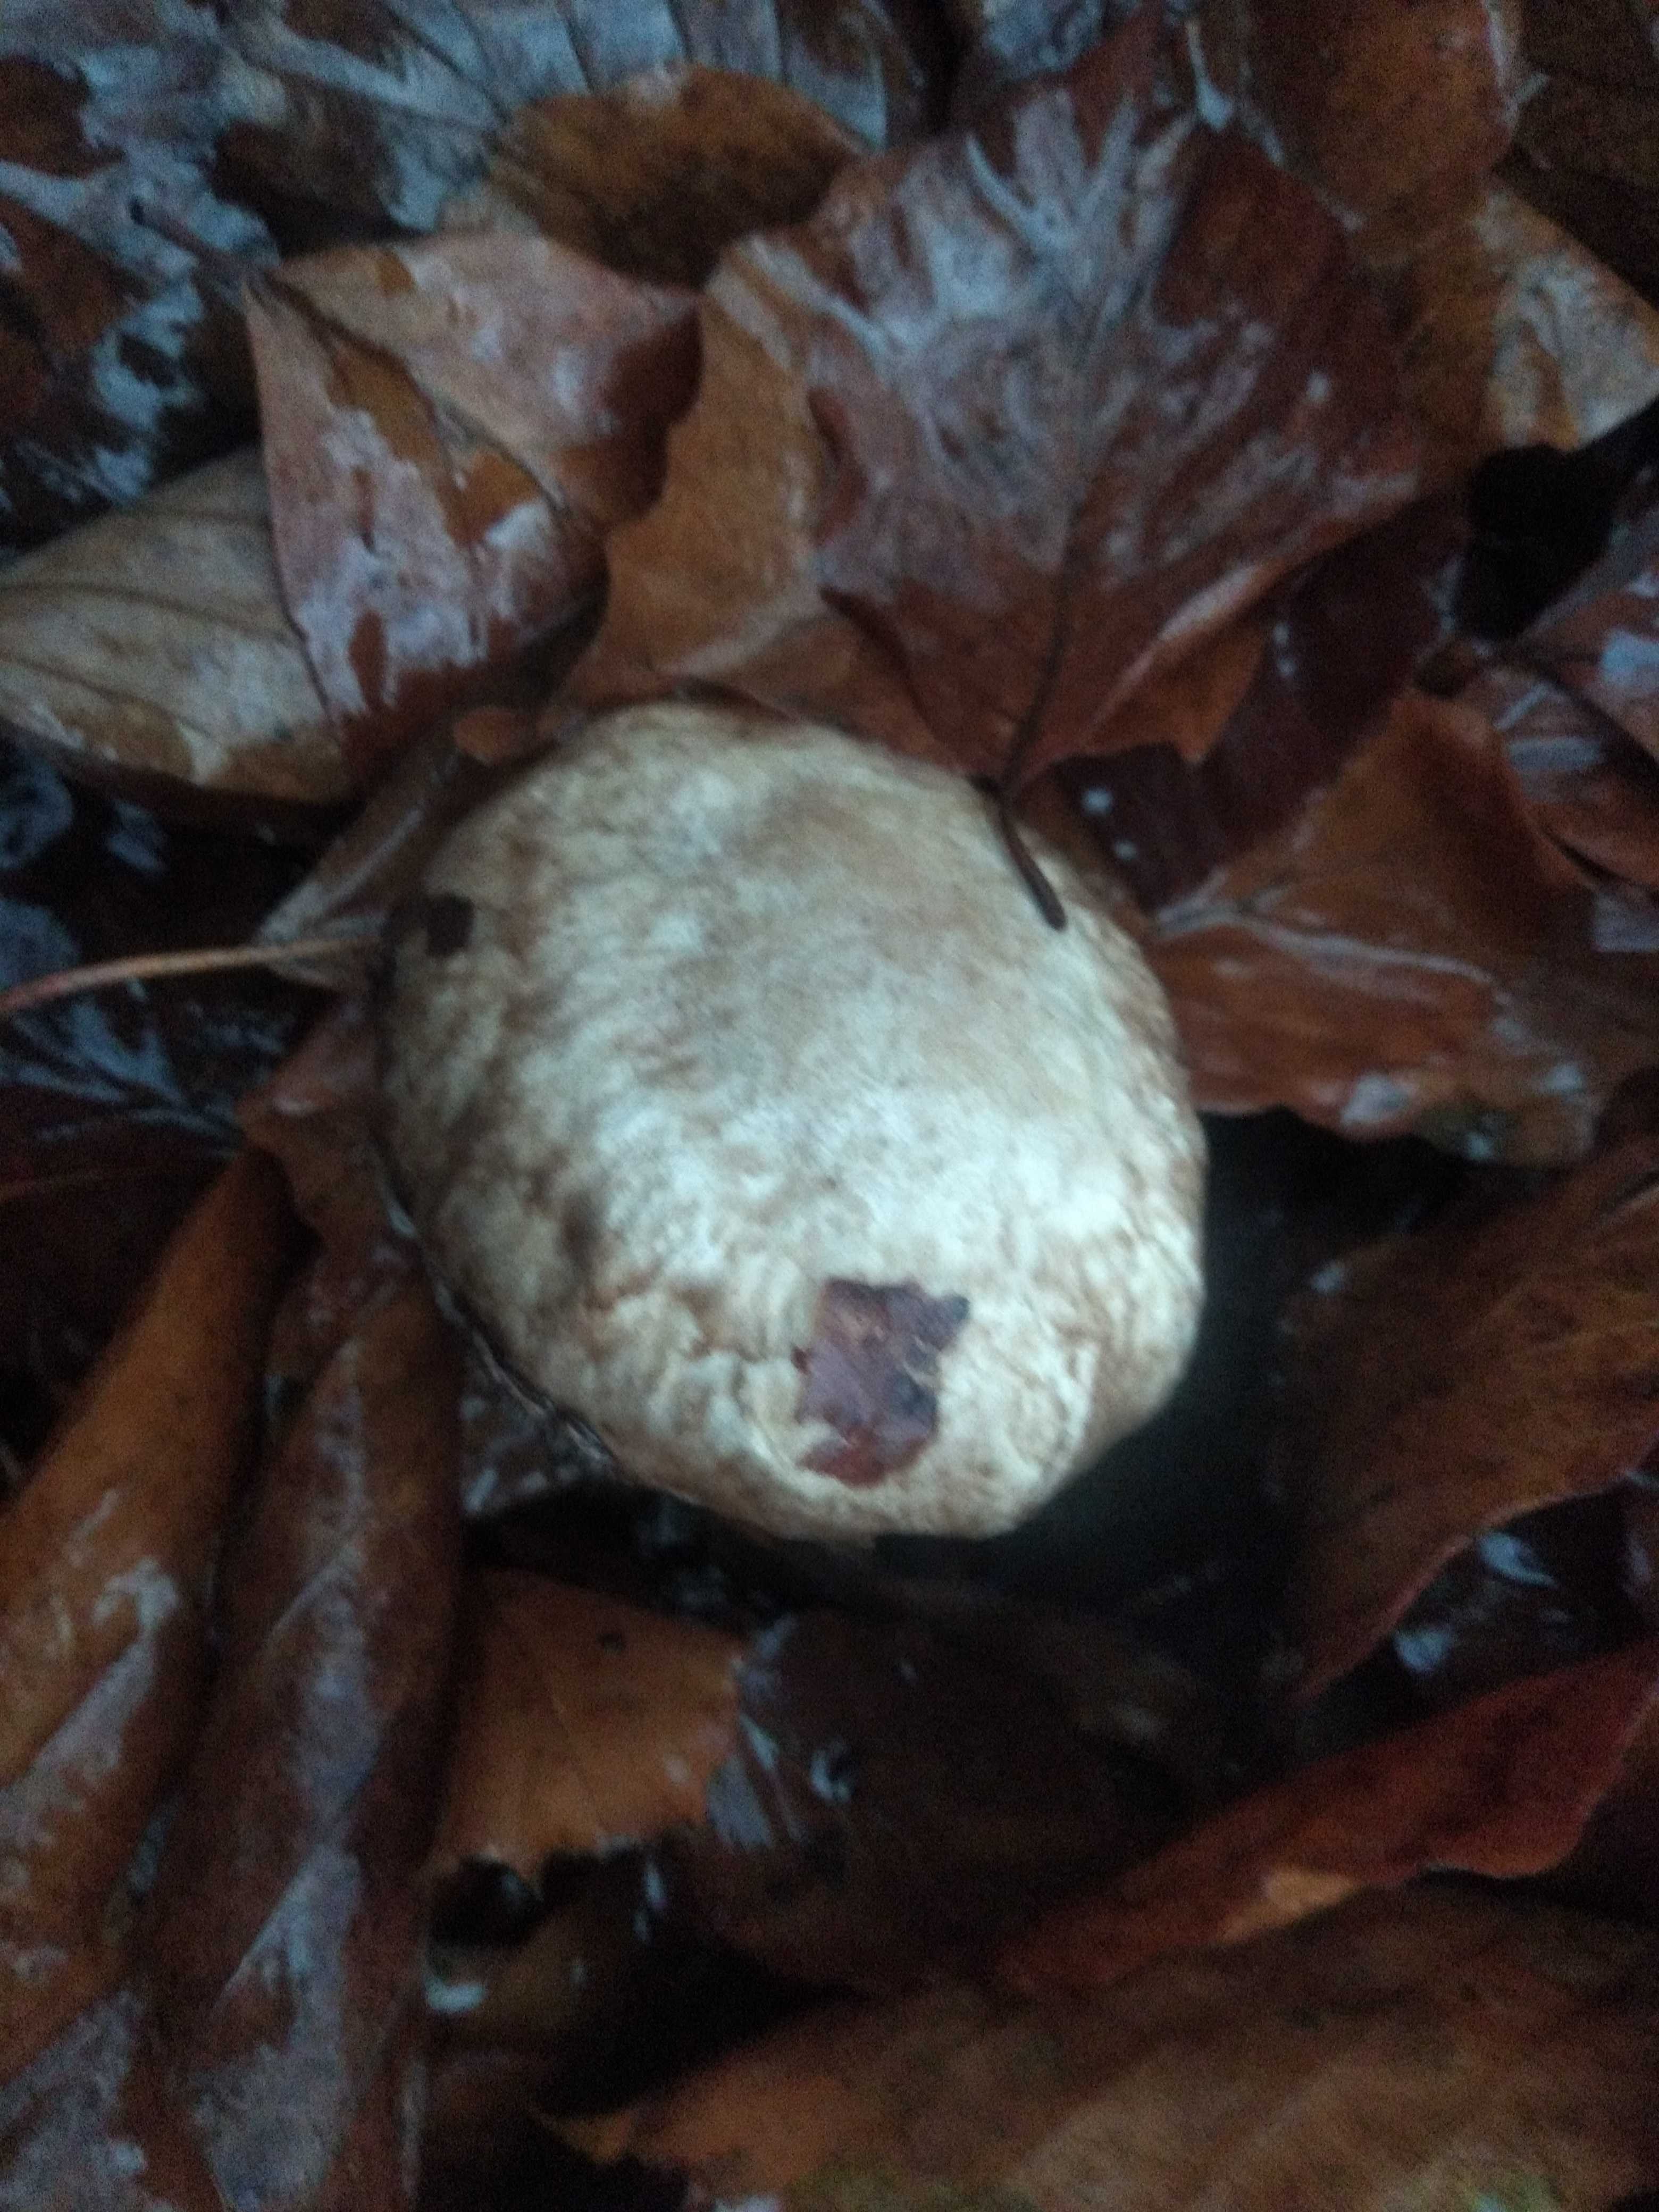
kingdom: Fungi
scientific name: Fungi
